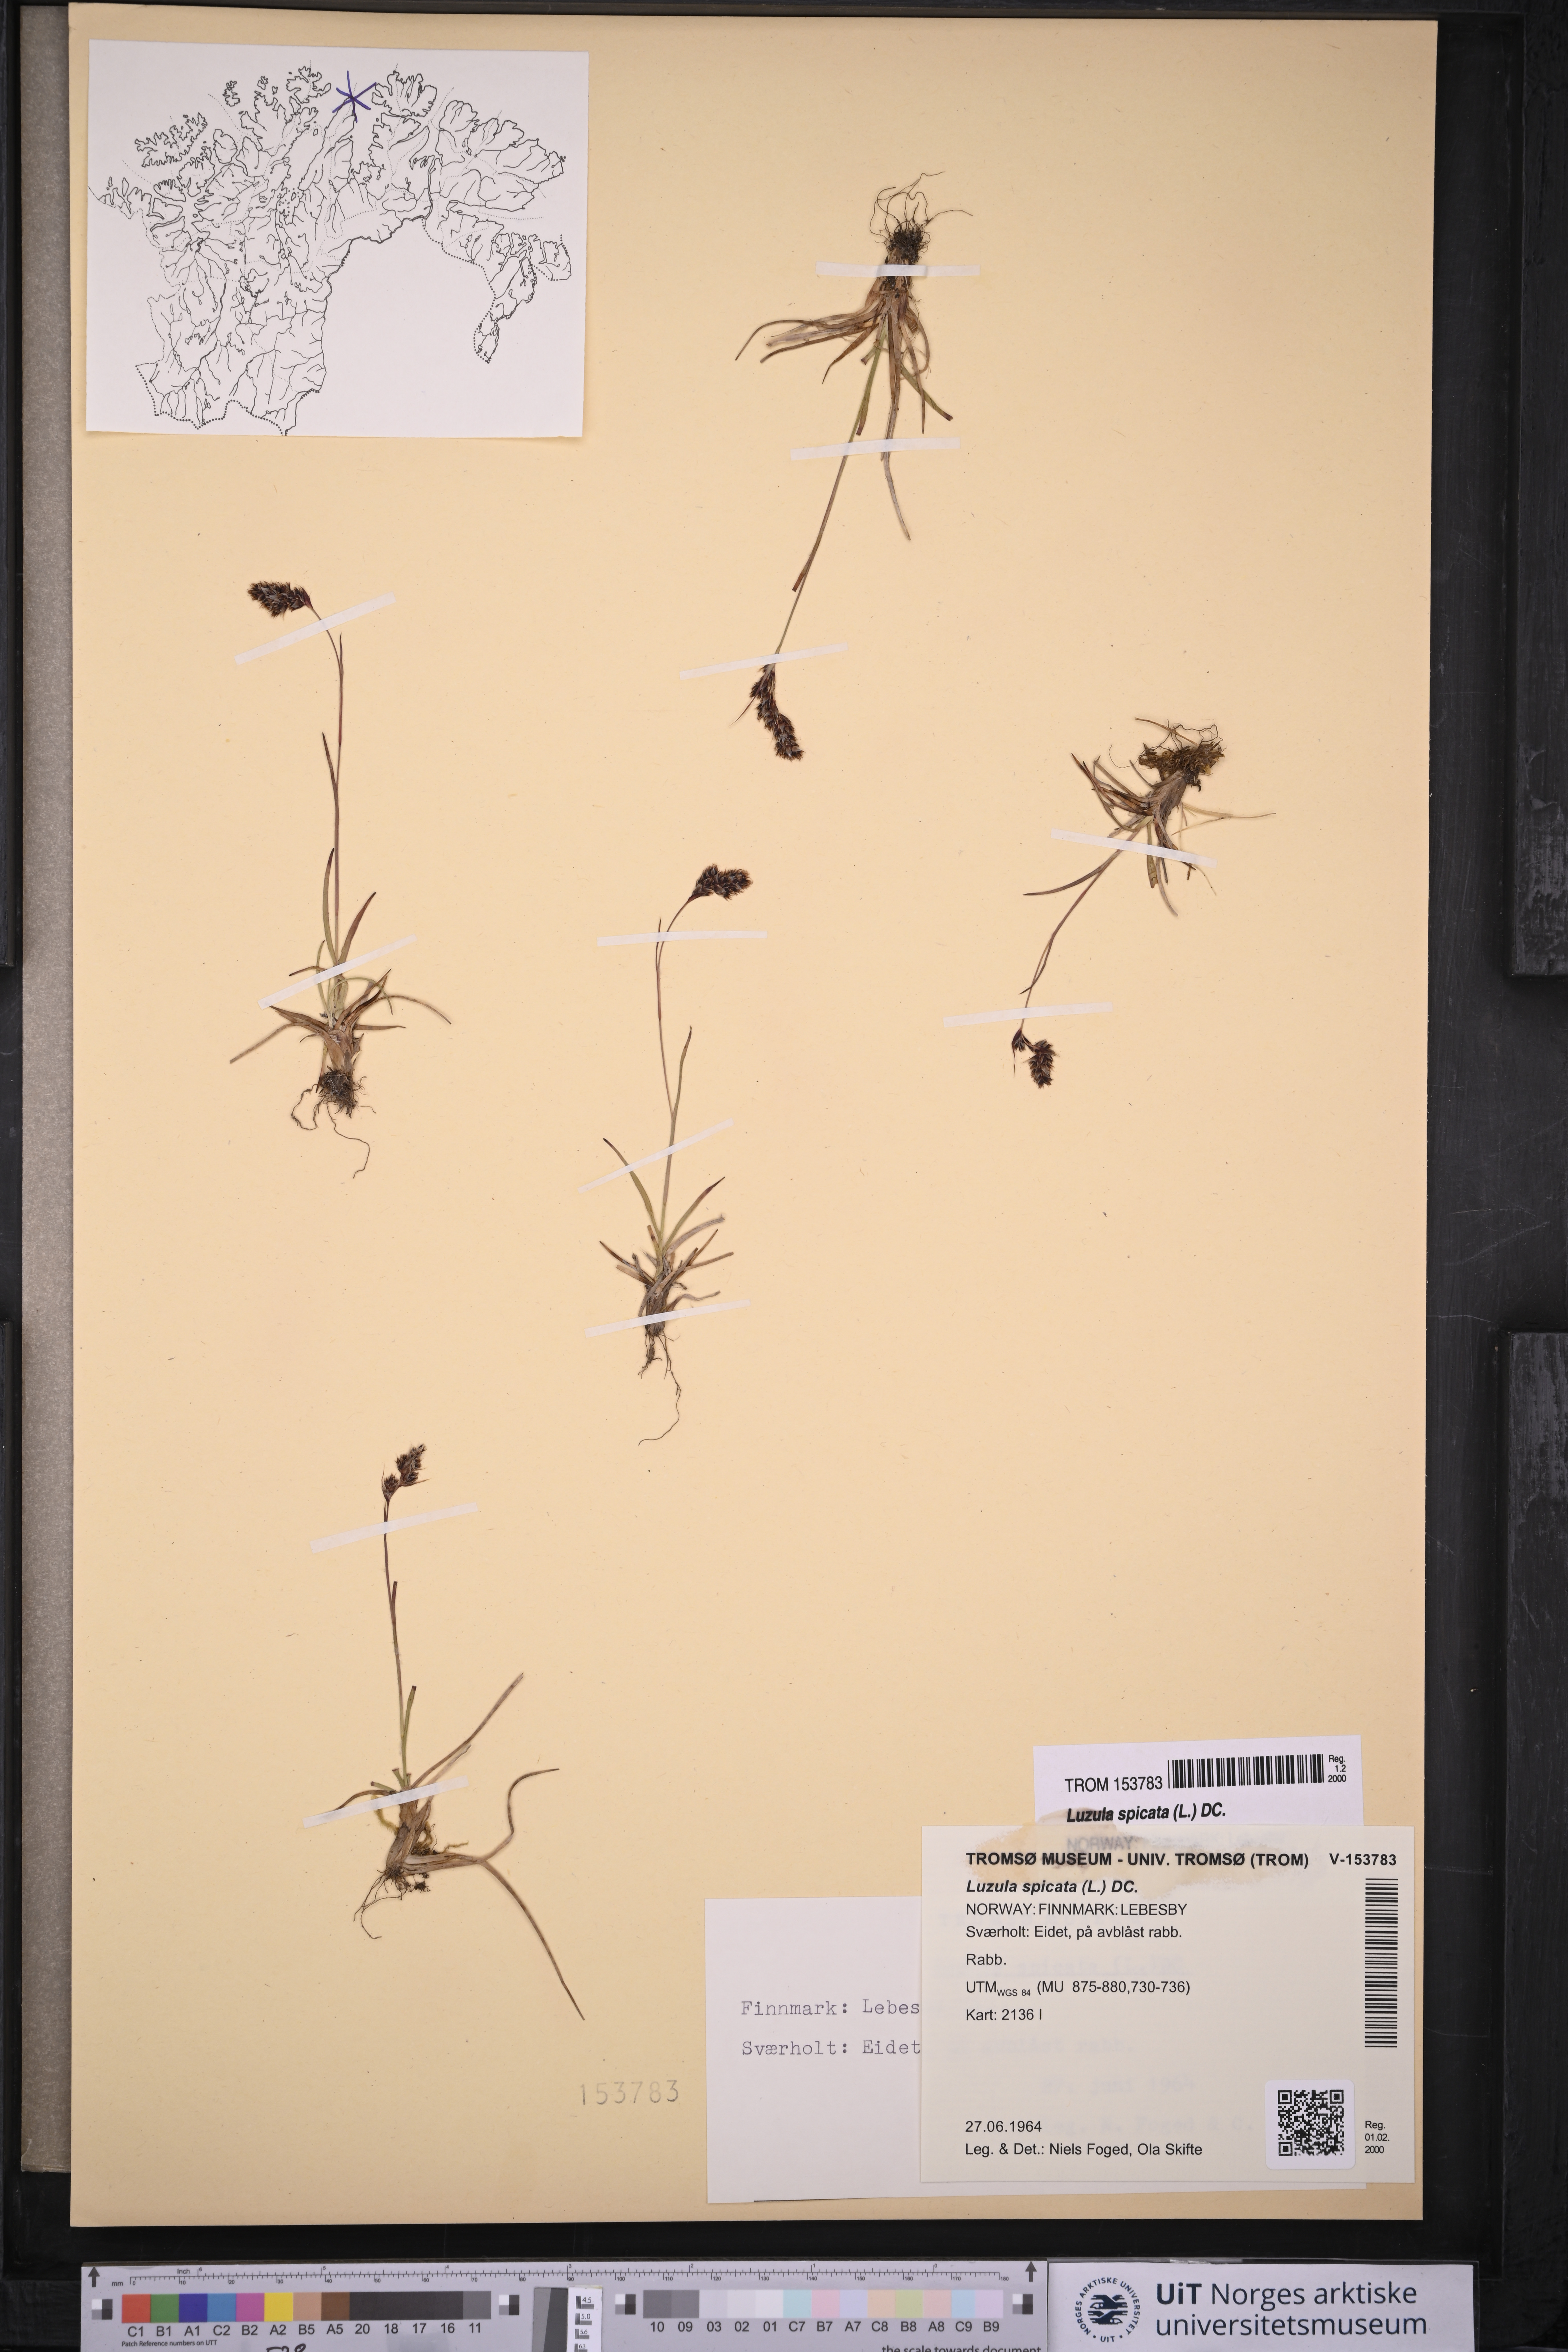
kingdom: Plantae
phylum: Tracheophyta
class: Liliopsida
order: Poales
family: Juncaceae
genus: Luzula
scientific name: Luzula spicata
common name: Spiked wood-rush
